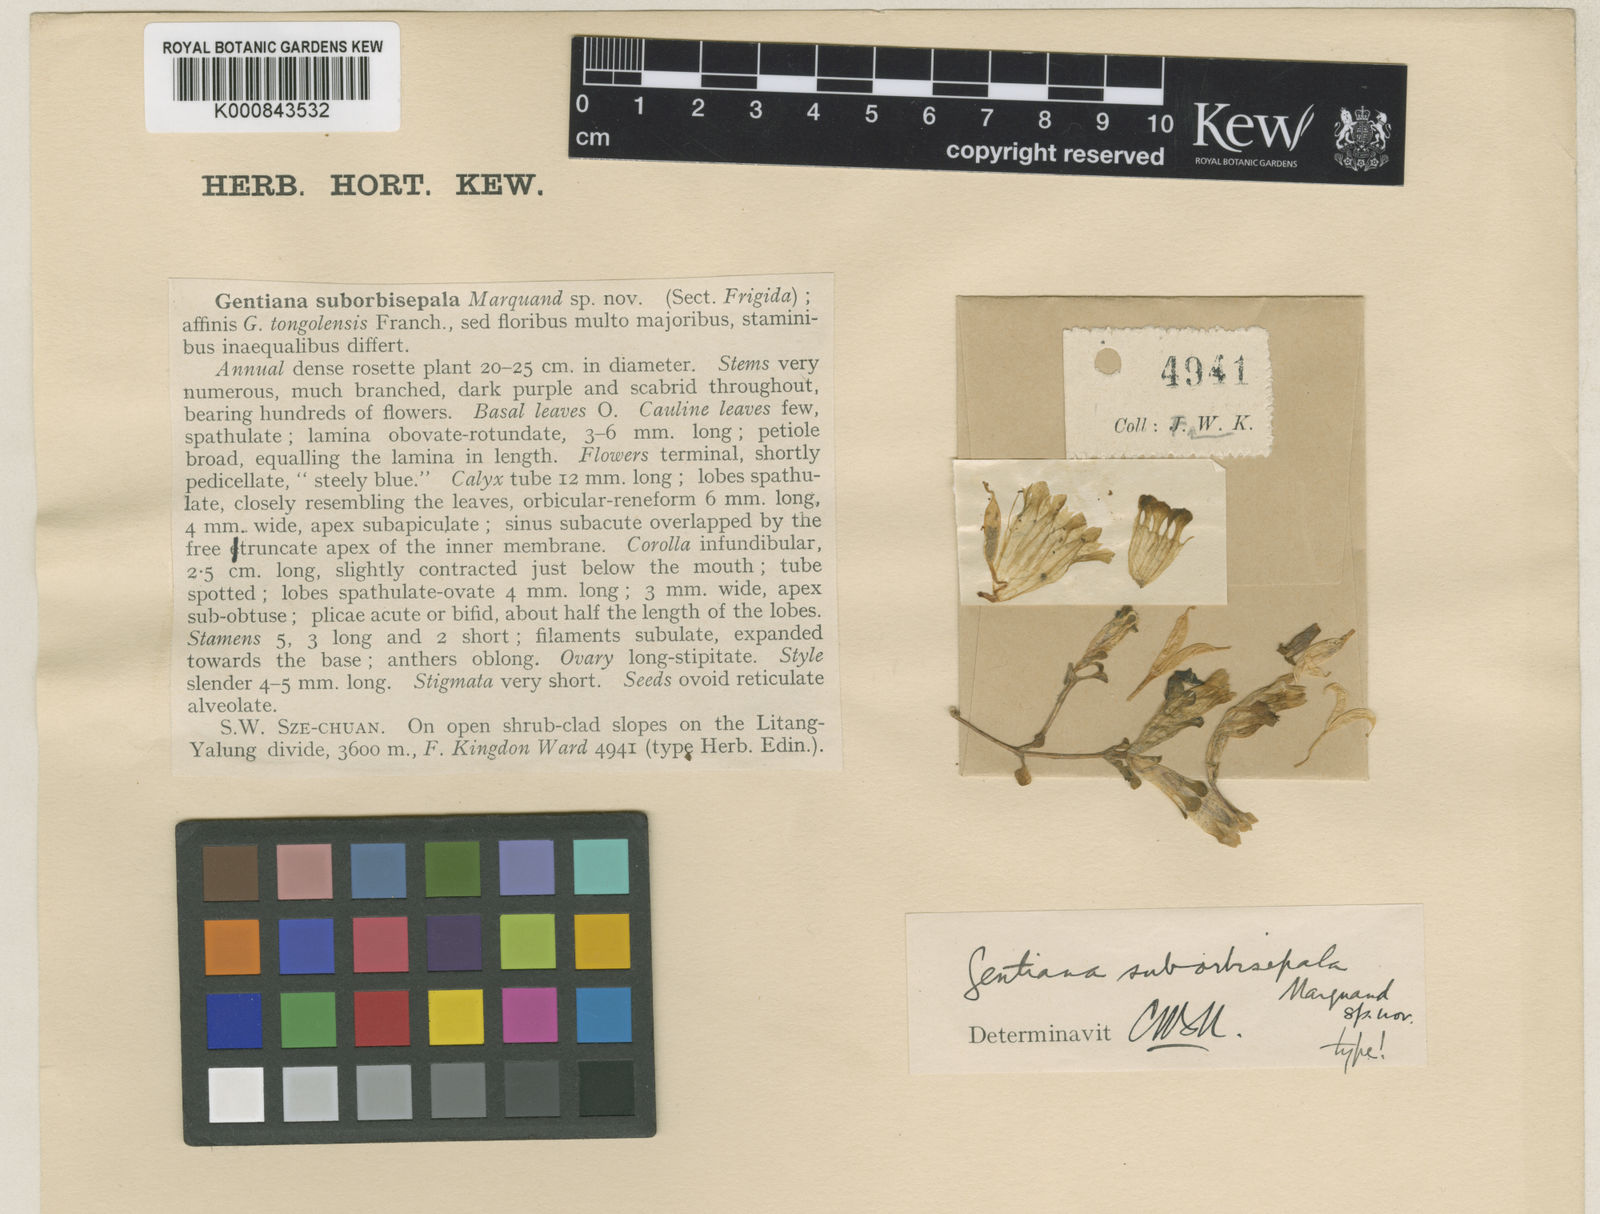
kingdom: Plantae
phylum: Tracheophyta
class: Magnoliopsida
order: Gentianales
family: Gentianaceae
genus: Gentiana
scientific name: Gentiana suborbisepala
